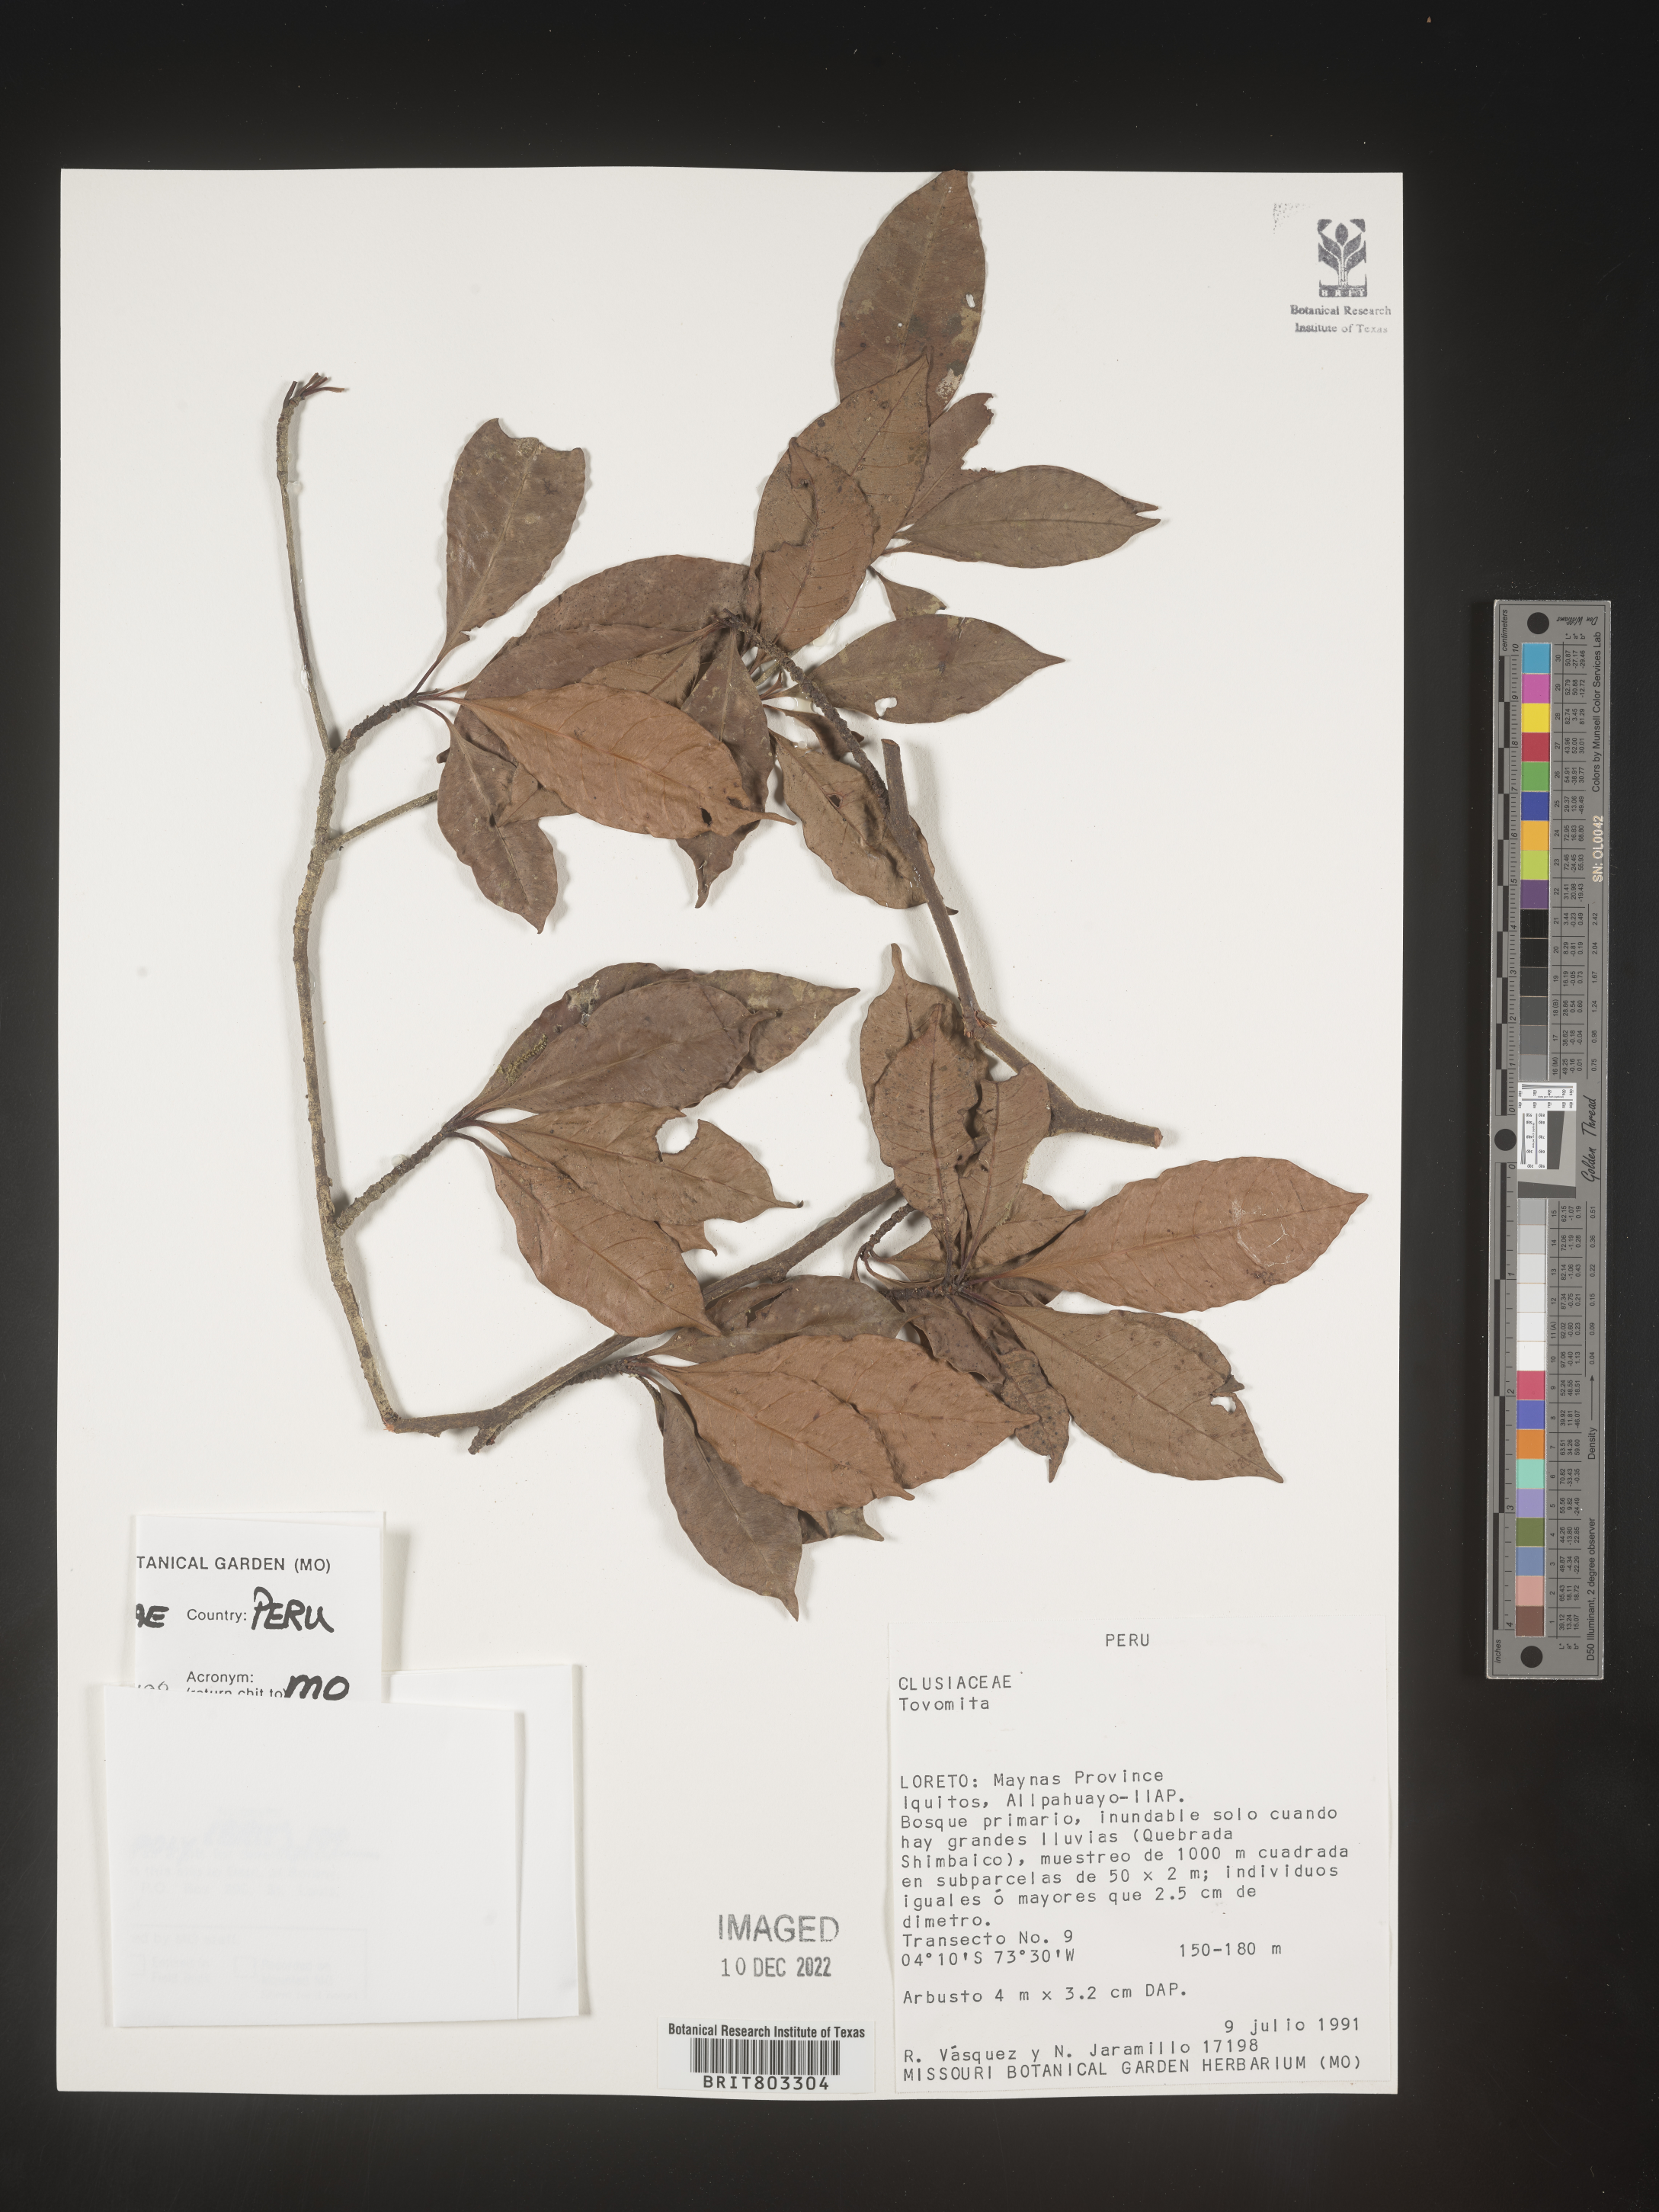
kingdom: Plantae
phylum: Tracheophyta
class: Magnoliopsida
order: Malpighiales
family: Clusiaceae
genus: Tovomita
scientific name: Tovomita
